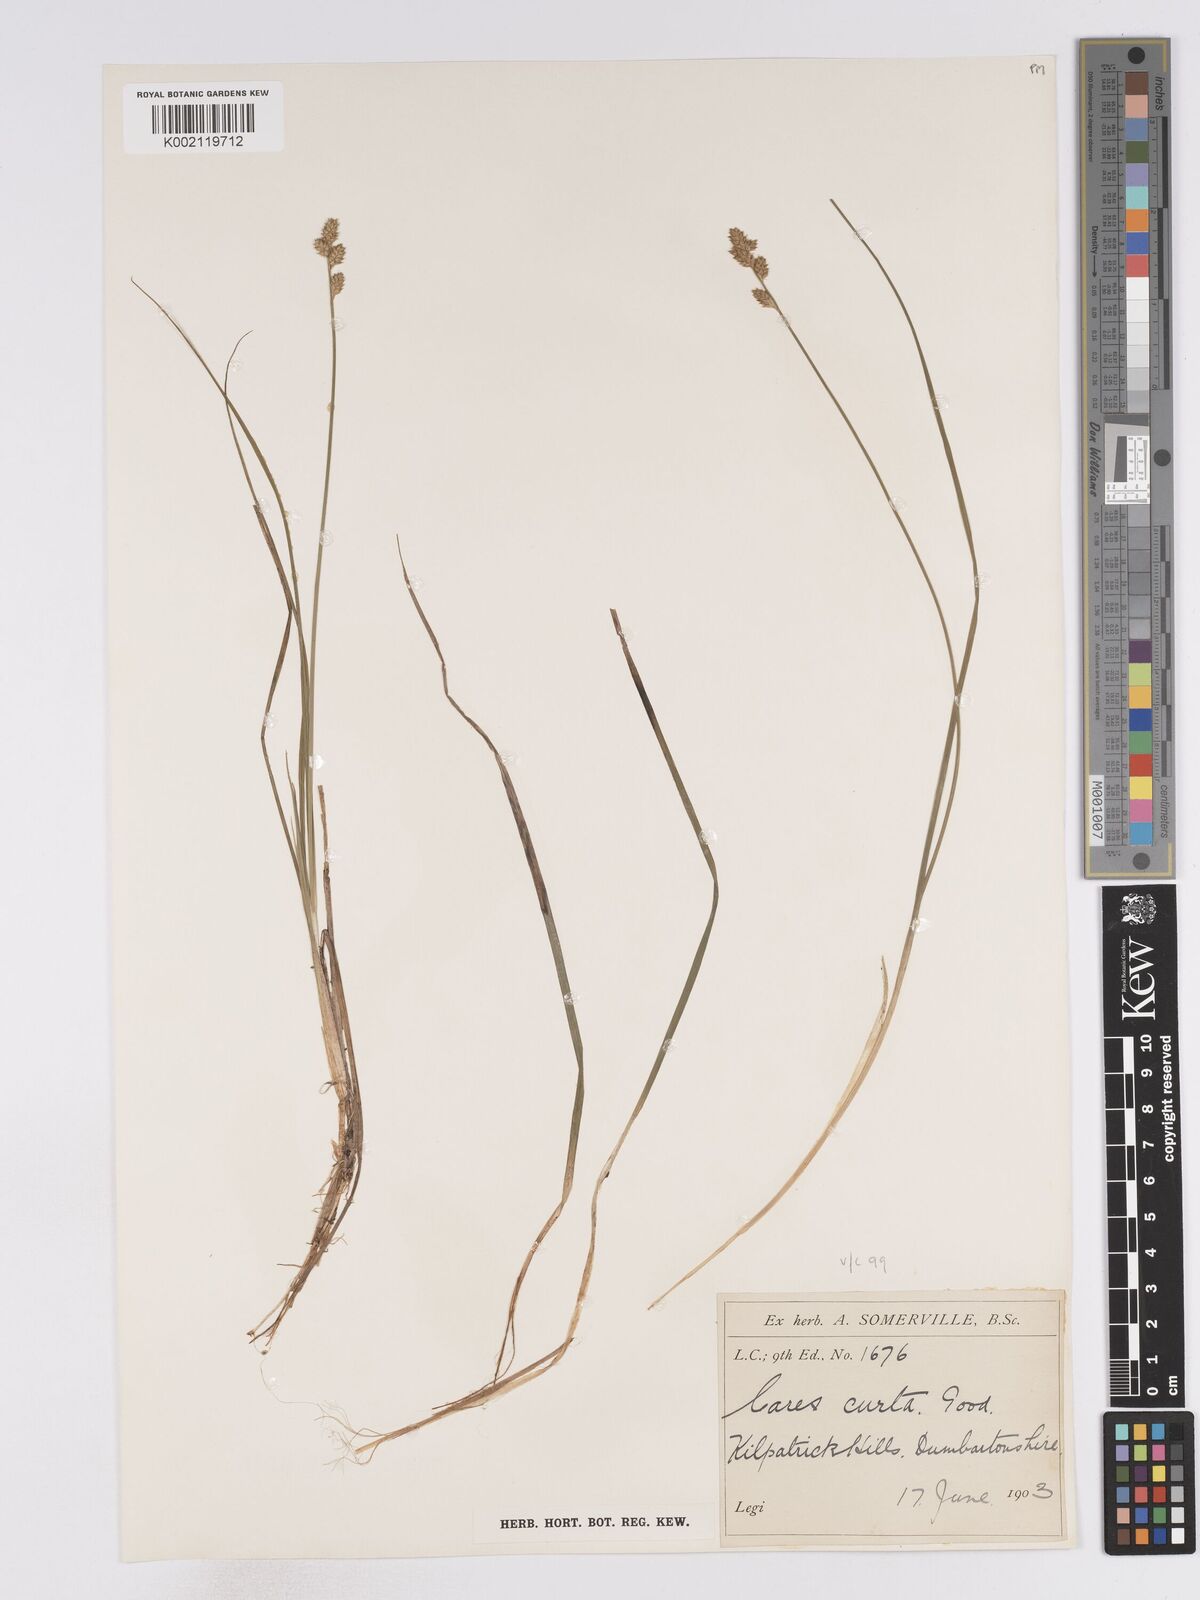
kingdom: Plantae
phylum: Tracheophyta
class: Liliopsida
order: Poales
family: Cyperaceae
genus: Carex
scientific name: Carex curta
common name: White sedge
